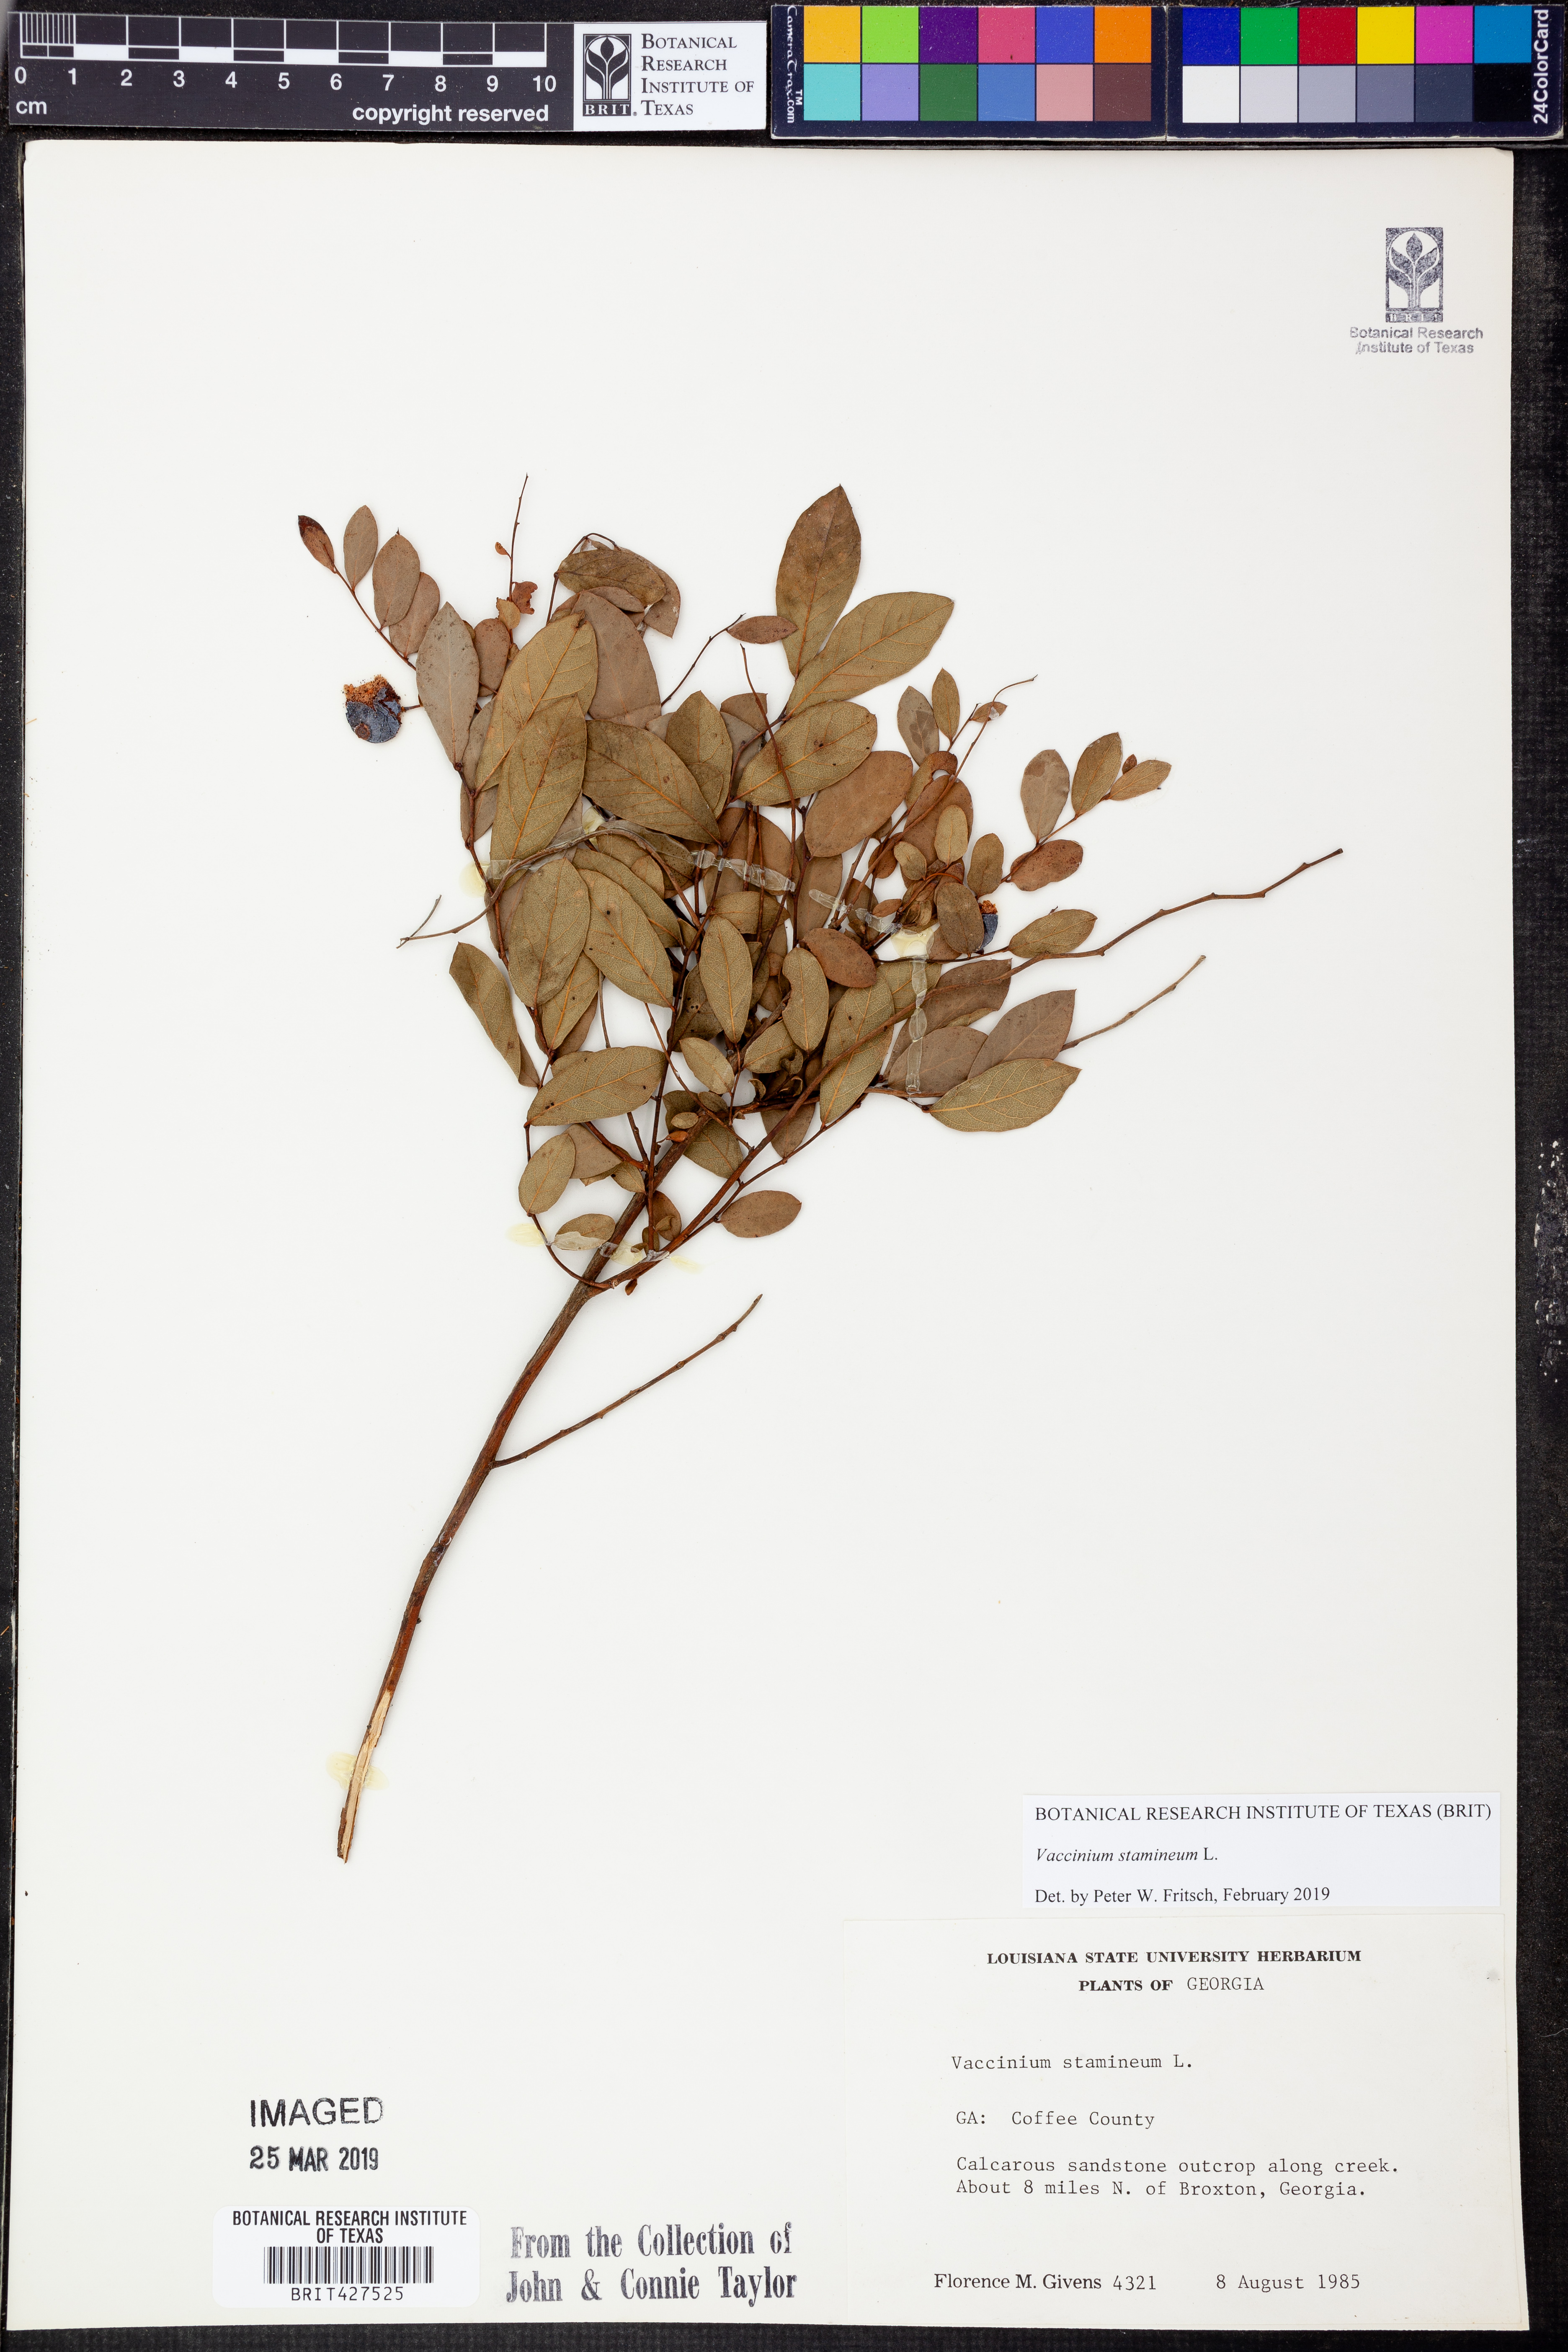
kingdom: Plantae
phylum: Tracheophyta
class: Magnoliopsida
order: Ericales
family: Ericaceae
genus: Vaccinium
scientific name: Vaccinium stamineum
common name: Deerberry
